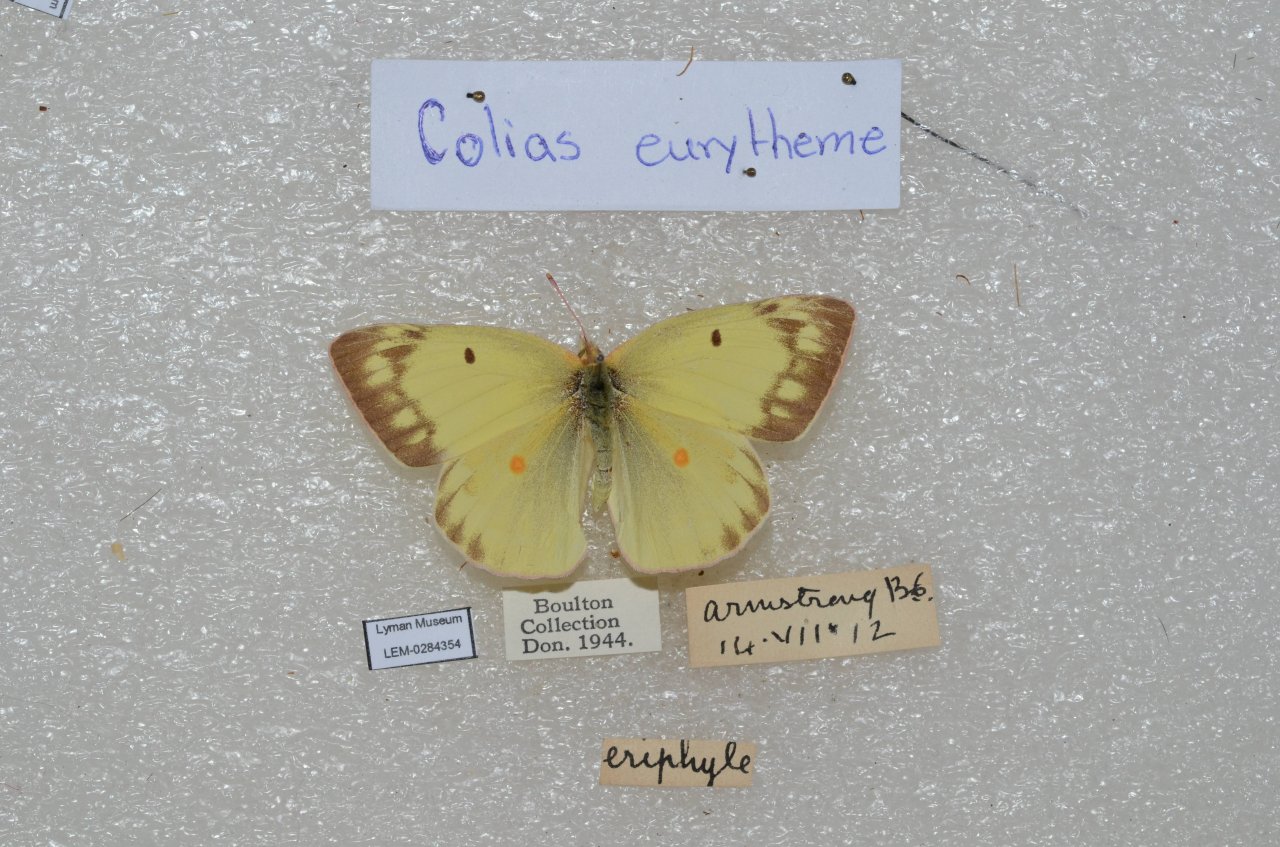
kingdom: Animalia
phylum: Arthropoda
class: Insecta
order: Lepidoptera
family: Pieridae
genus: Colias
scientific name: Colias eurytheme
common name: Orange Sulphur
